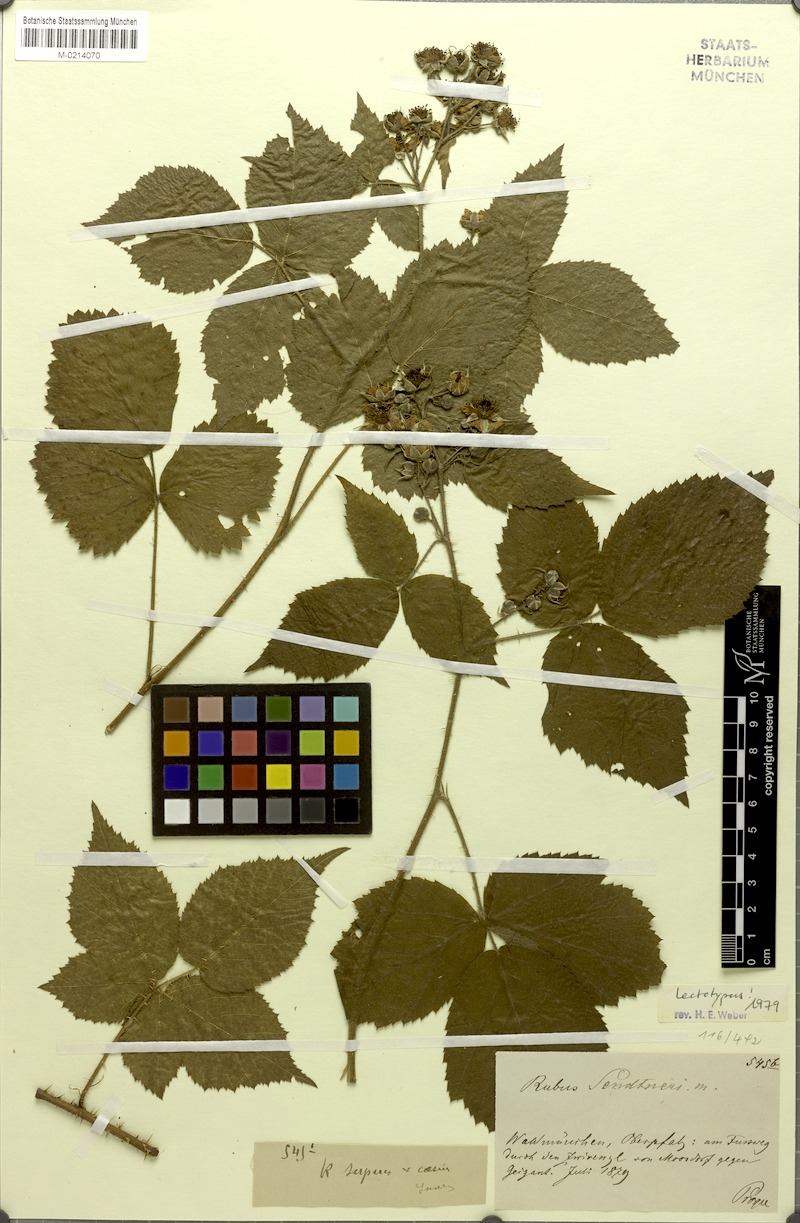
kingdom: Plantae
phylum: Tracheophyta
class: Magnoliopsida
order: Rosales
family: Rosaceae
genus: Rubus
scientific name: Rubus sendtneri
